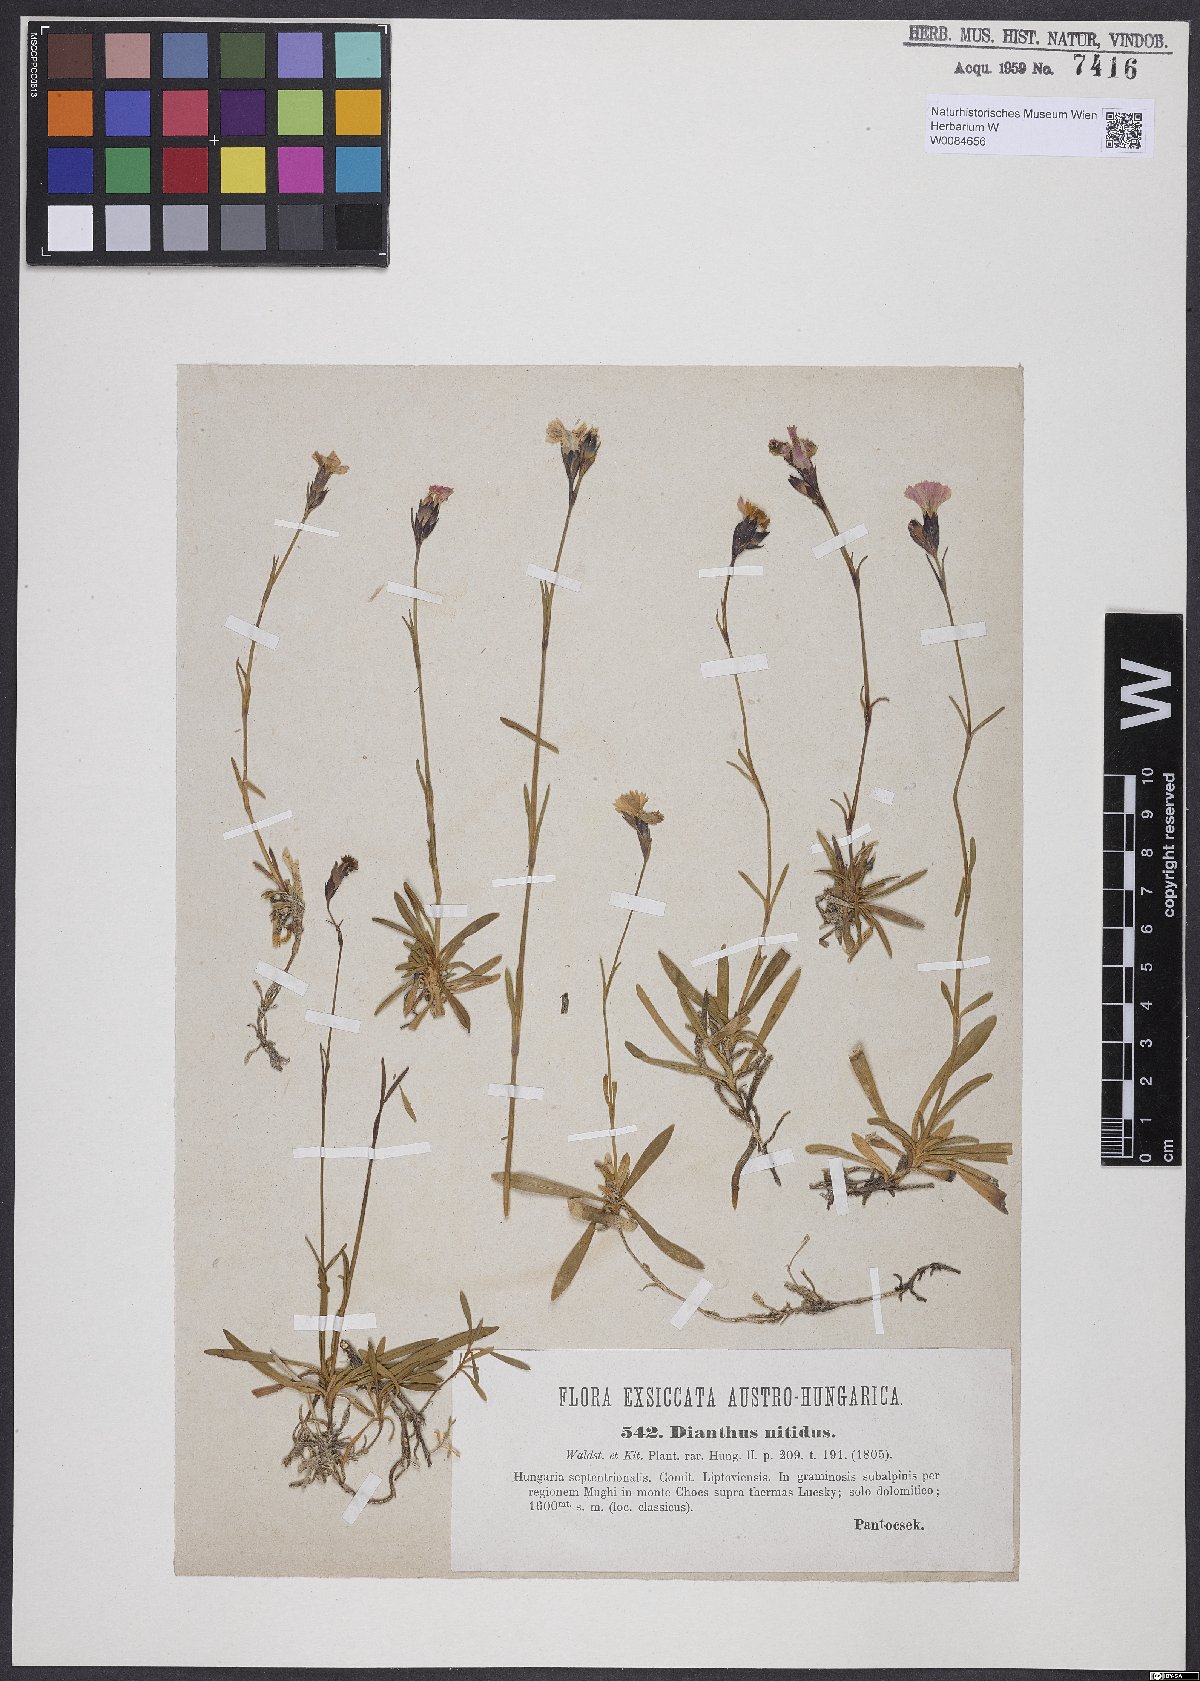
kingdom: Plantae
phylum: Tracheophyta
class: Magnoliopsida
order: Caryophyllales
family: Caryophyllaceae
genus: Dianthus
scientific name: Dianthus nitidus
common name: Carpathian glossy pink
